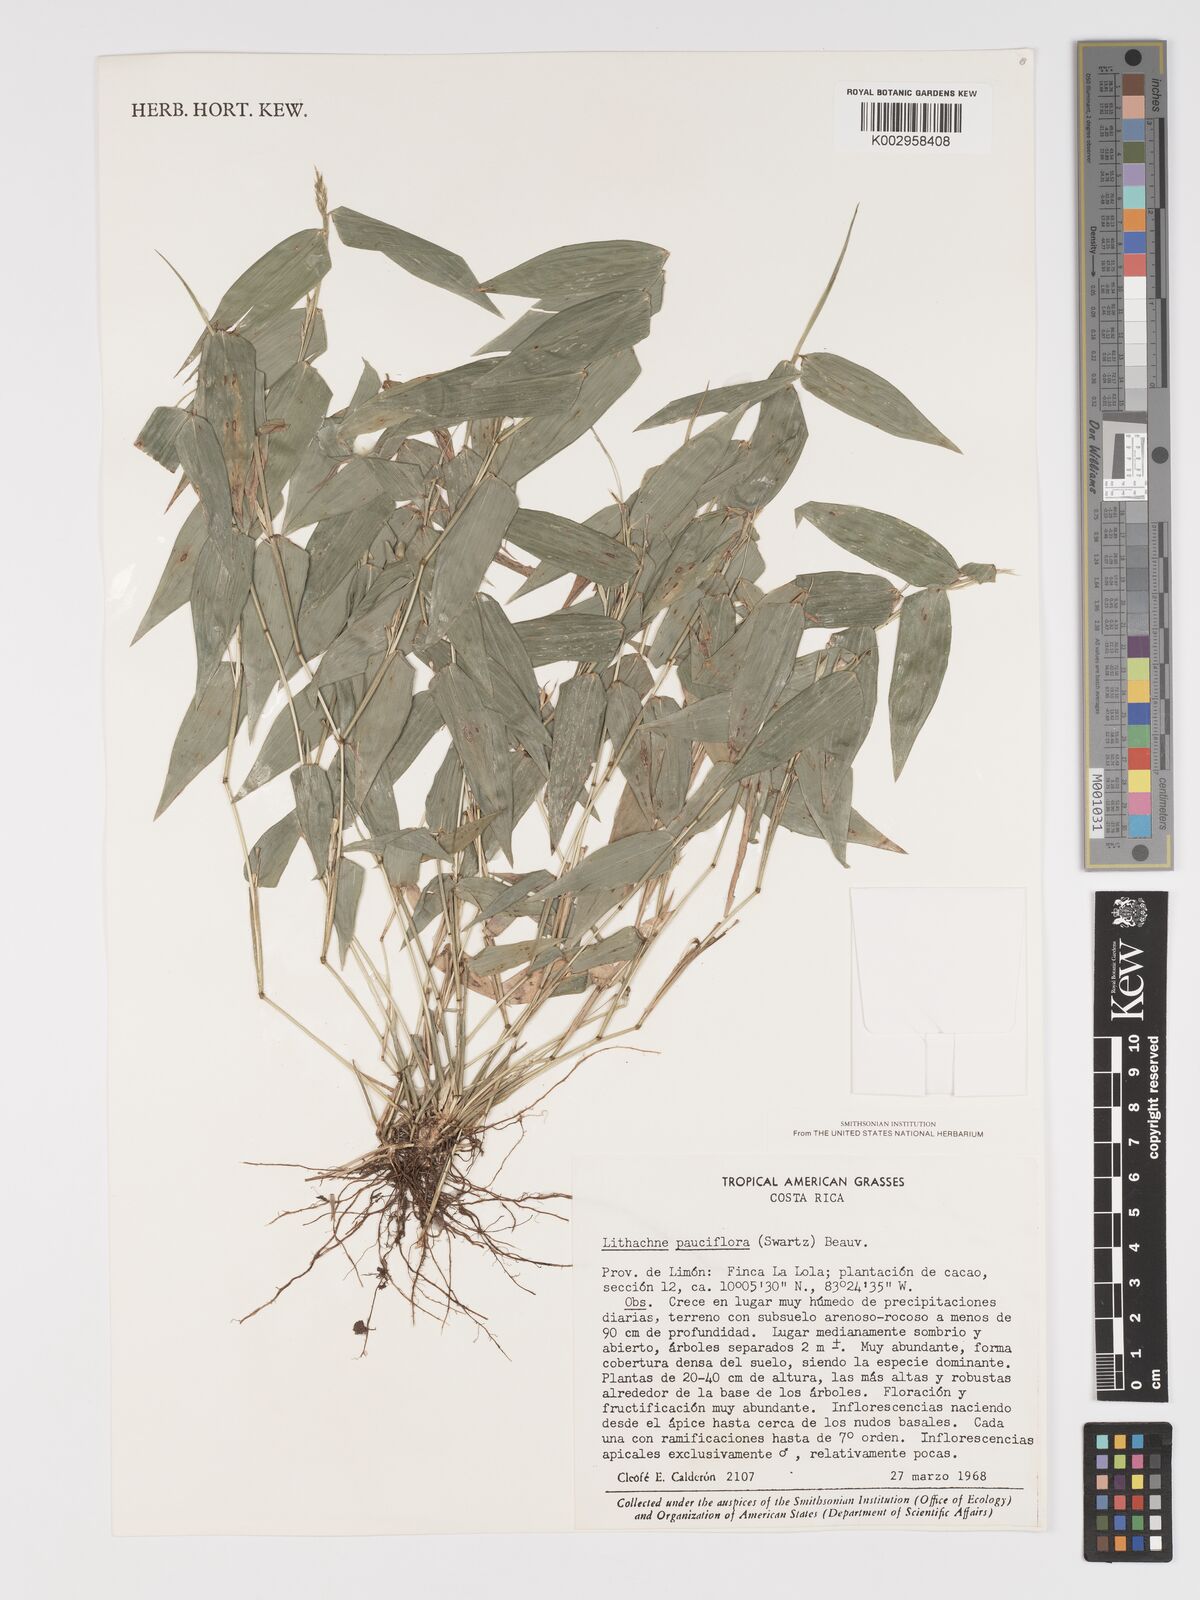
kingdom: Plantae
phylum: Tracheophyta
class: Liliopsida
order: Poales
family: Poaceae
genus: Lithachne
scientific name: Lithachne pauciflora
